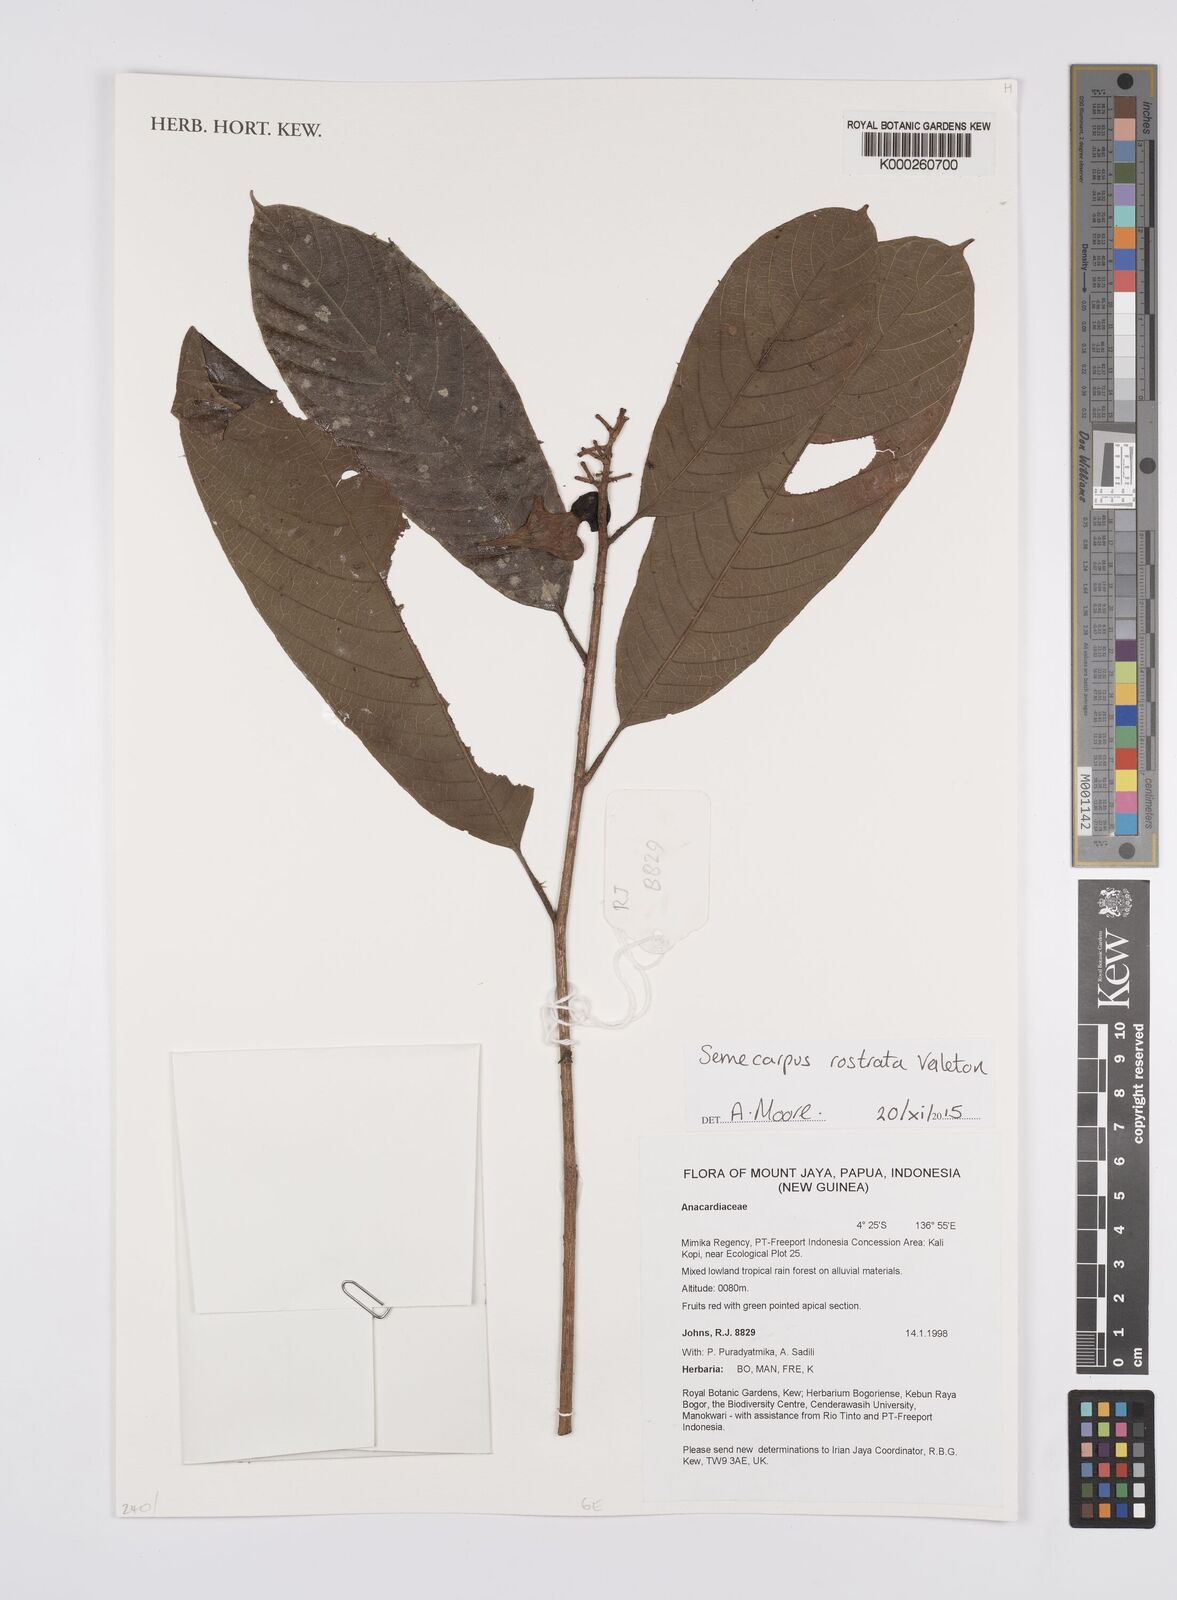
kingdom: Plantae
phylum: Tracheophyta
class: Magnoliopsida
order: Sapindales
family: Anacardiaceae
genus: Semecarpus
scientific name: Semecarpus rostratus
